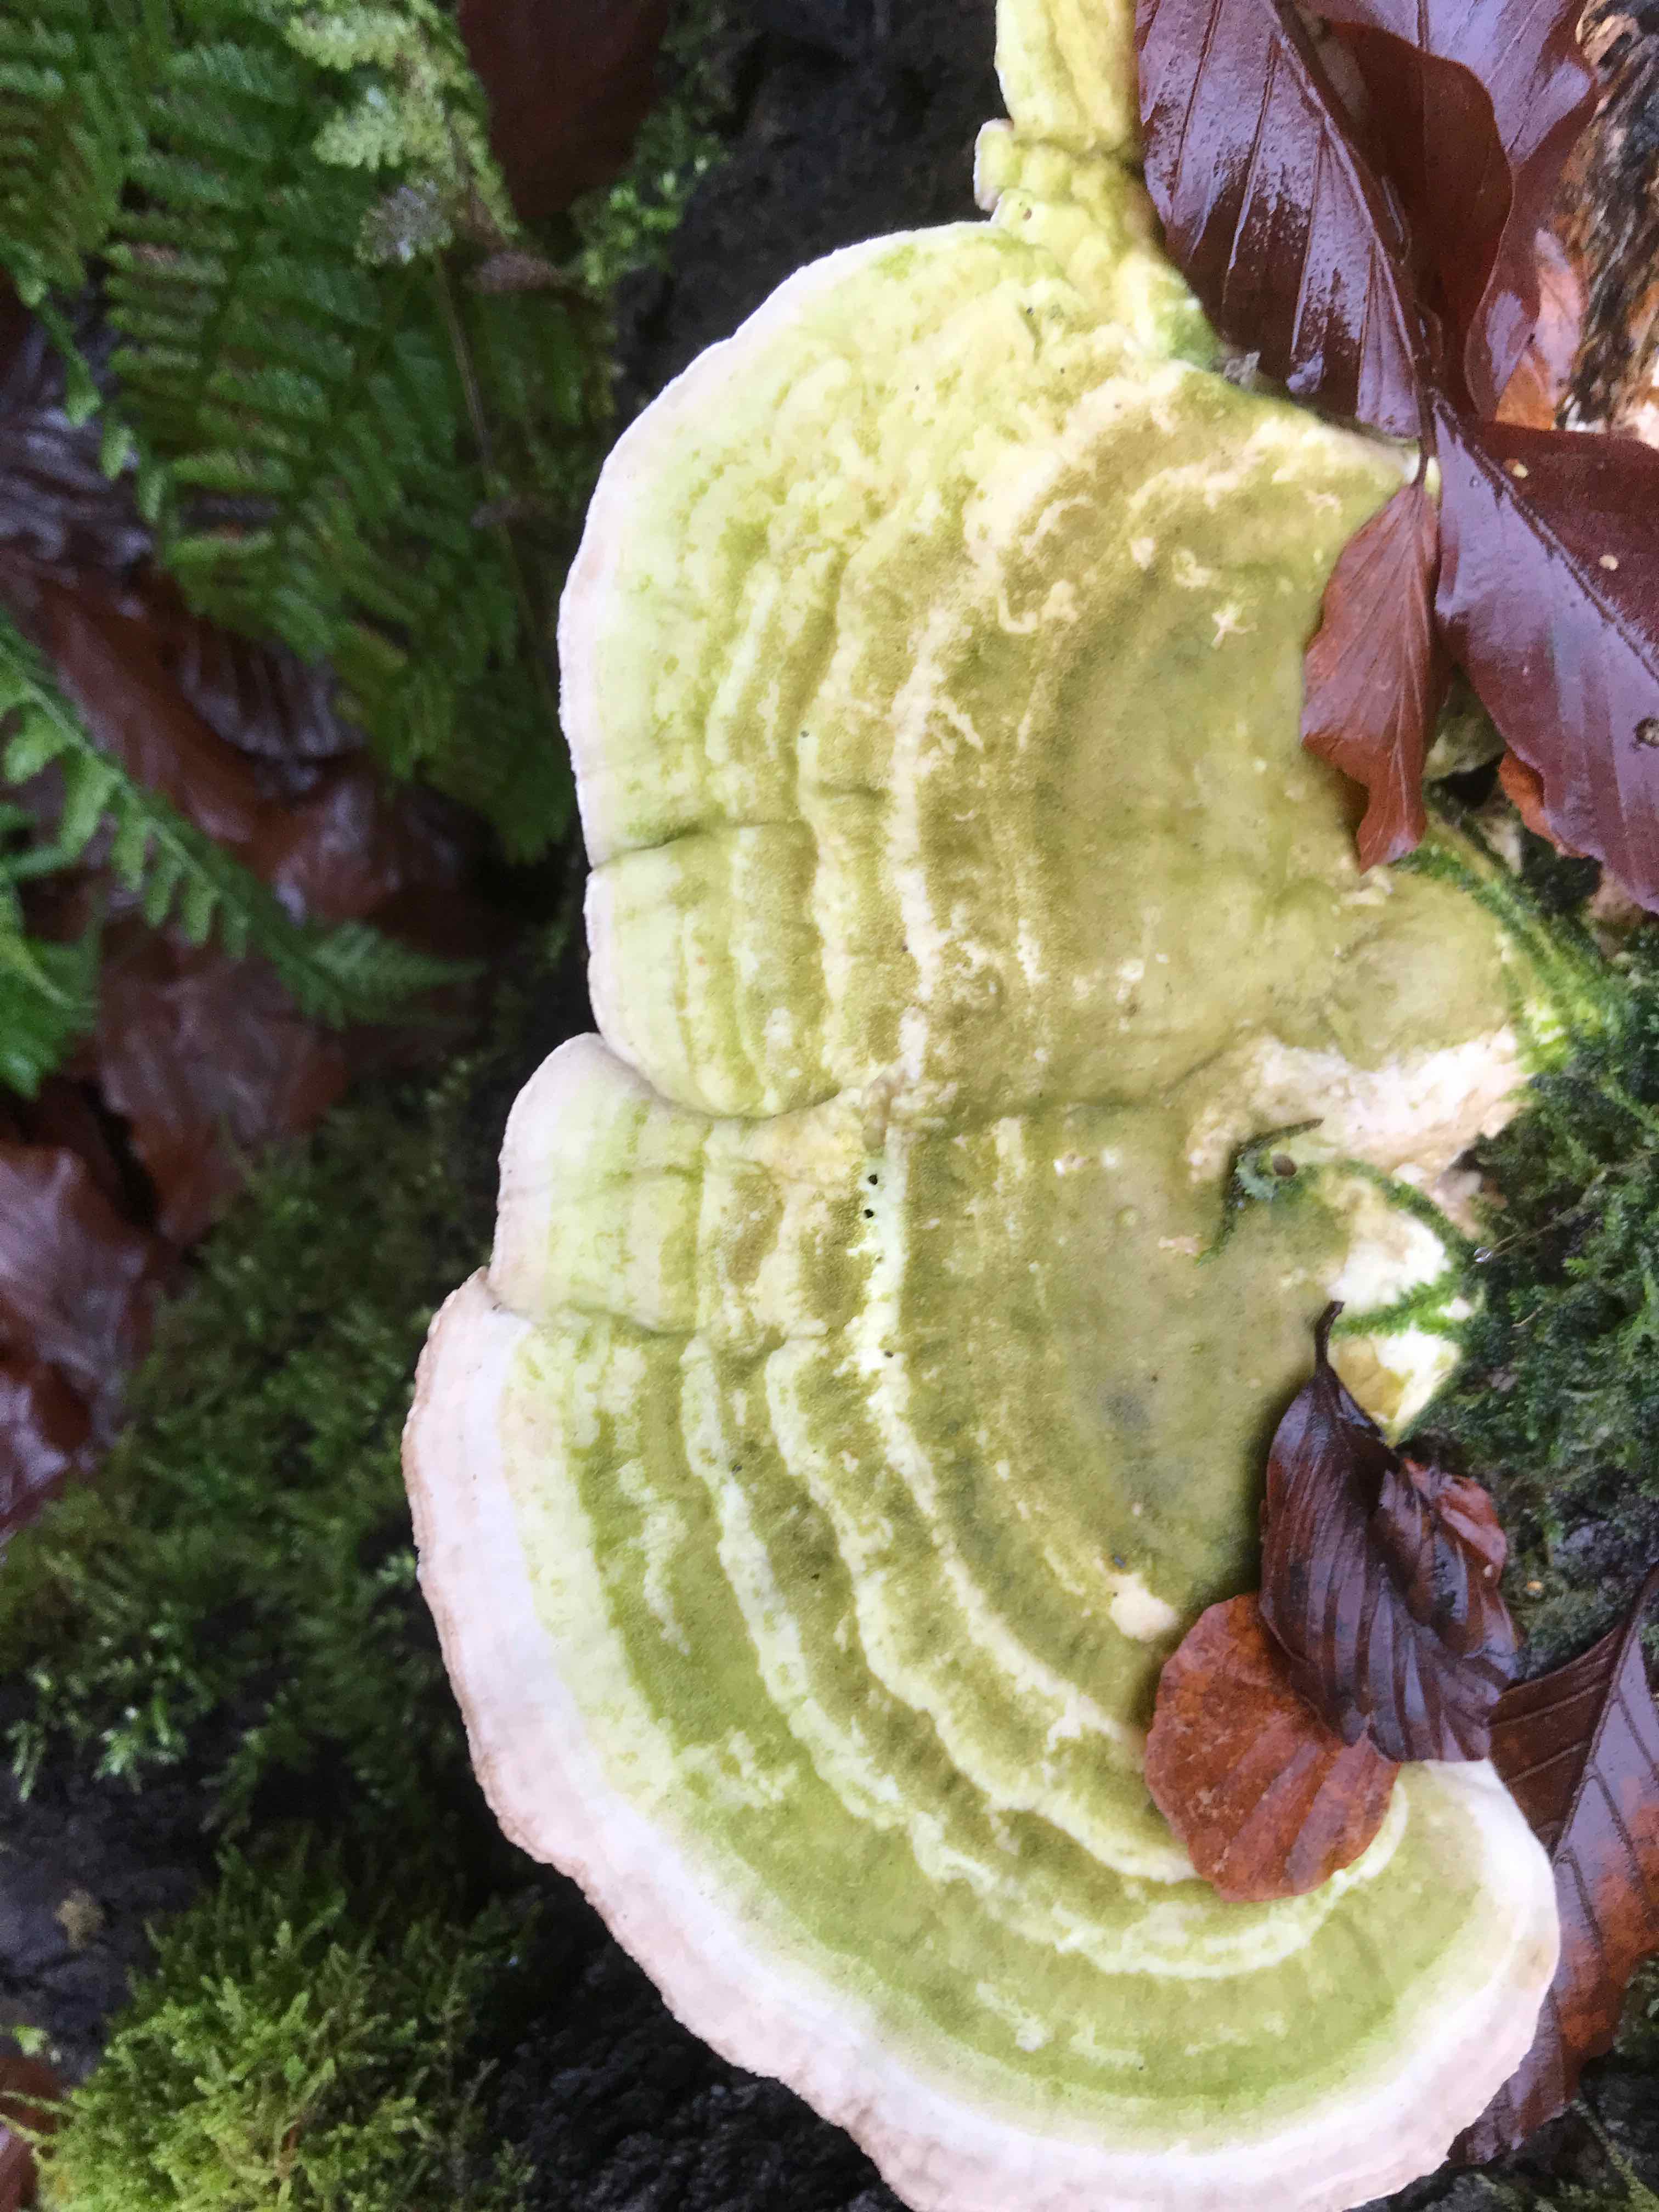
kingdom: Fungi
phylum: Basidiomycota
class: Agaricomycetes
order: Polyporales
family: Polyporaceae
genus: Trametes
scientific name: Trametes gibbosa
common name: puklet læderporesvamp
